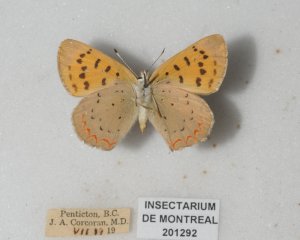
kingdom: Animalia
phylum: Arthropoda
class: Insecta
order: Lepidoptera
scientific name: Lepidoptera
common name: Butterflies
